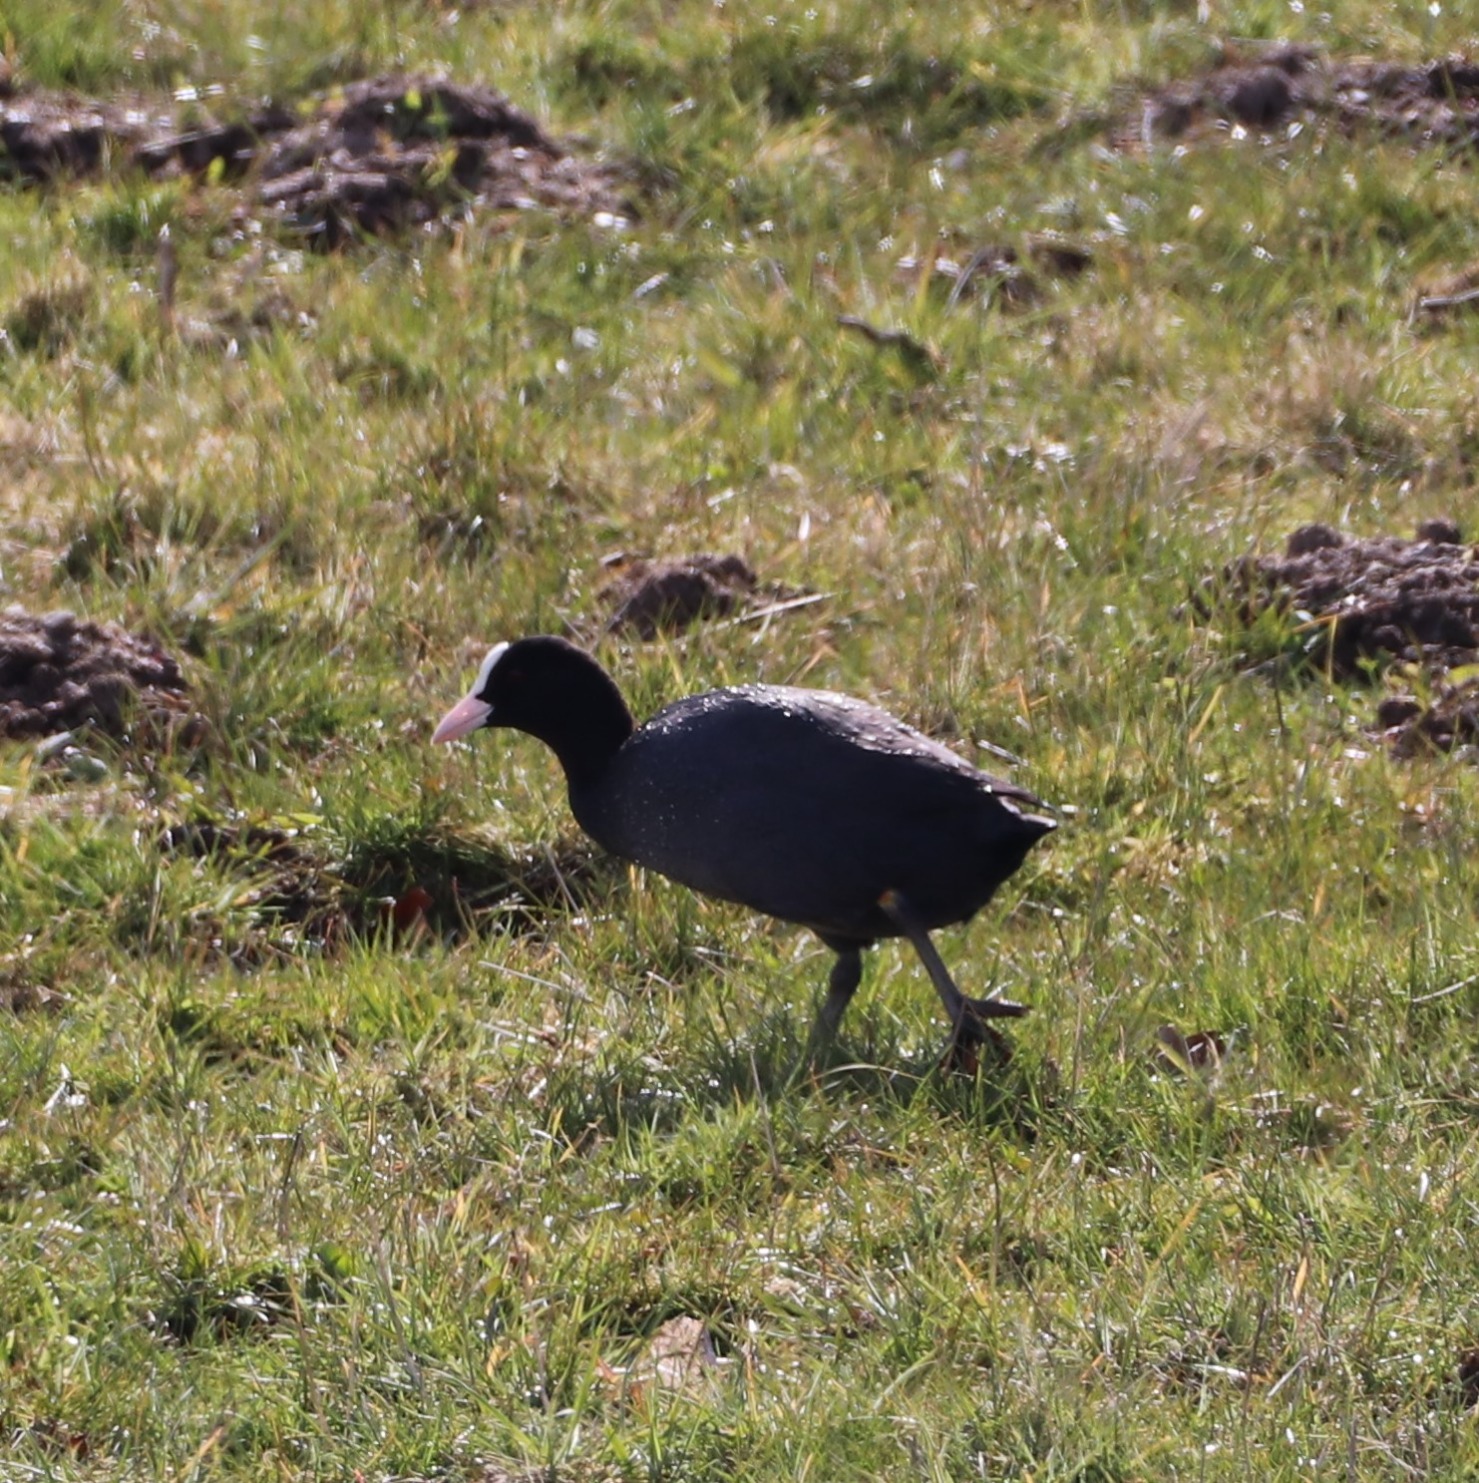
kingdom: Animalia
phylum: Chordata
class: Aves
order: Gruiformes
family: Rallidae
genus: Fulica
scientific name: Fulica atra
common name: Blishøne
